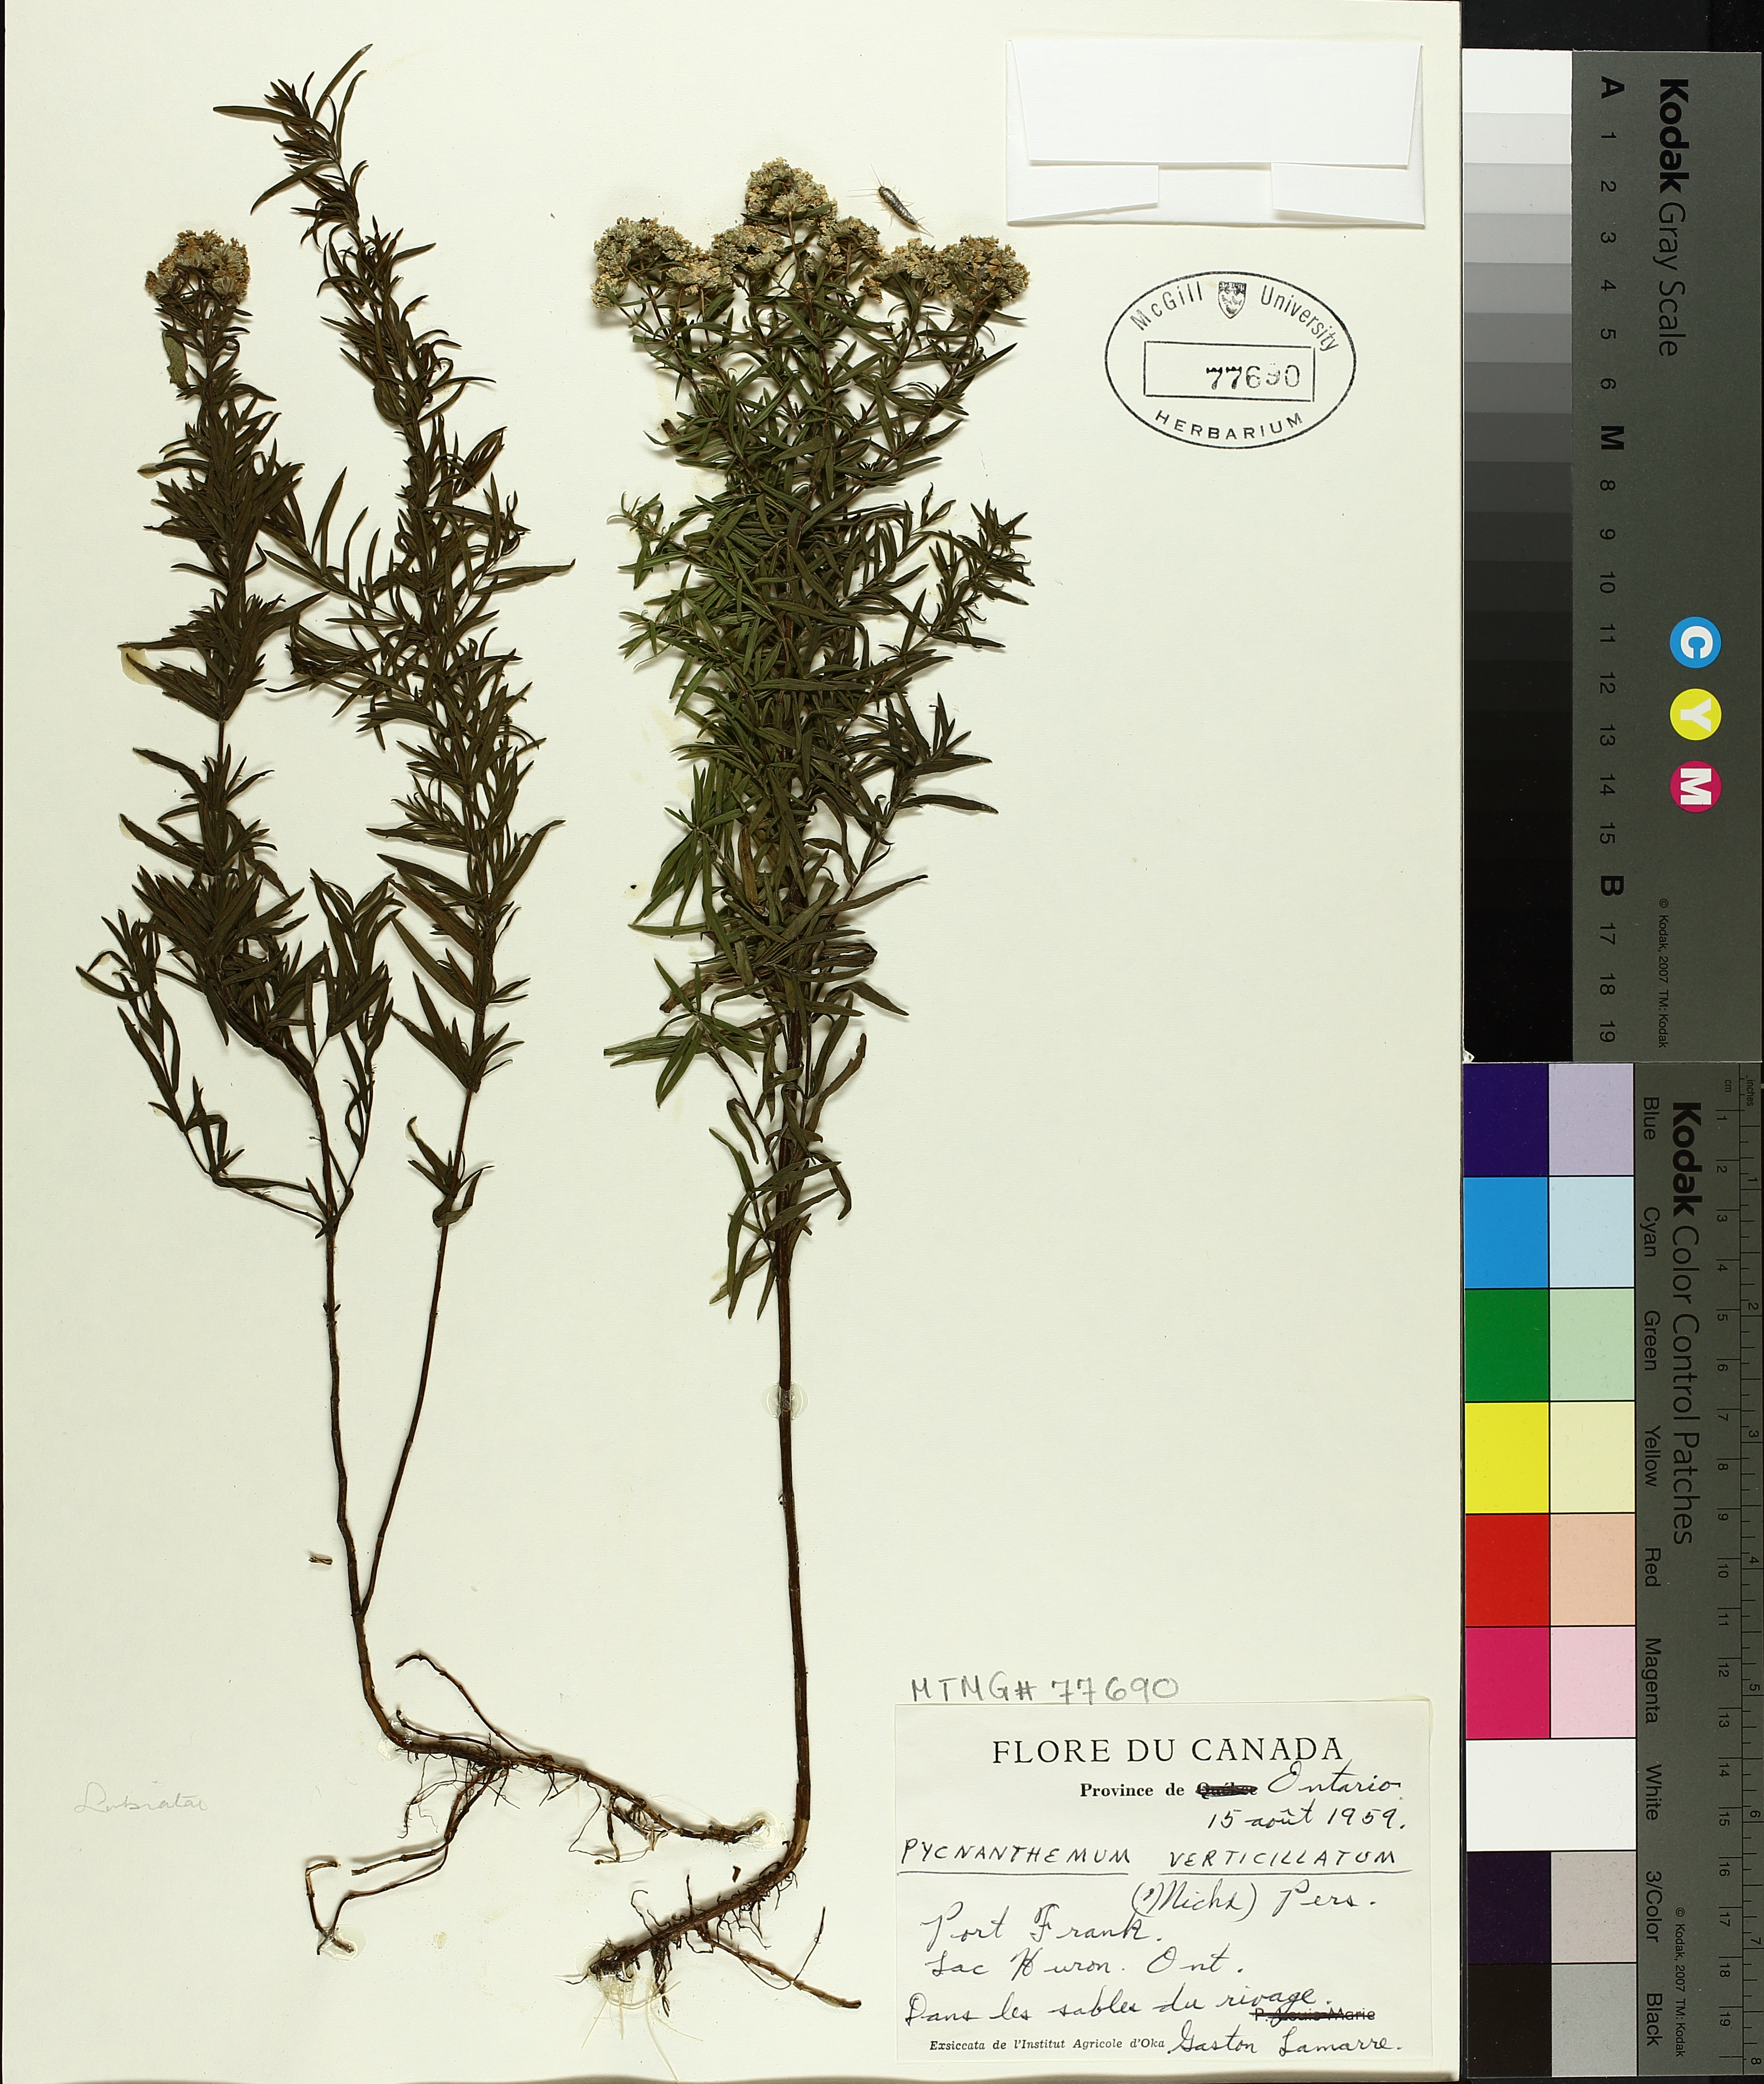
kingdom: Plantae
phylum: Tracheophyta
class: Magnoliopsida
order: Lamiales
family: Lamiaceae
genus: Pycnanthemum
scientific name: Pycnanthemum verticillatum
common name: Whorled mountain-mint
